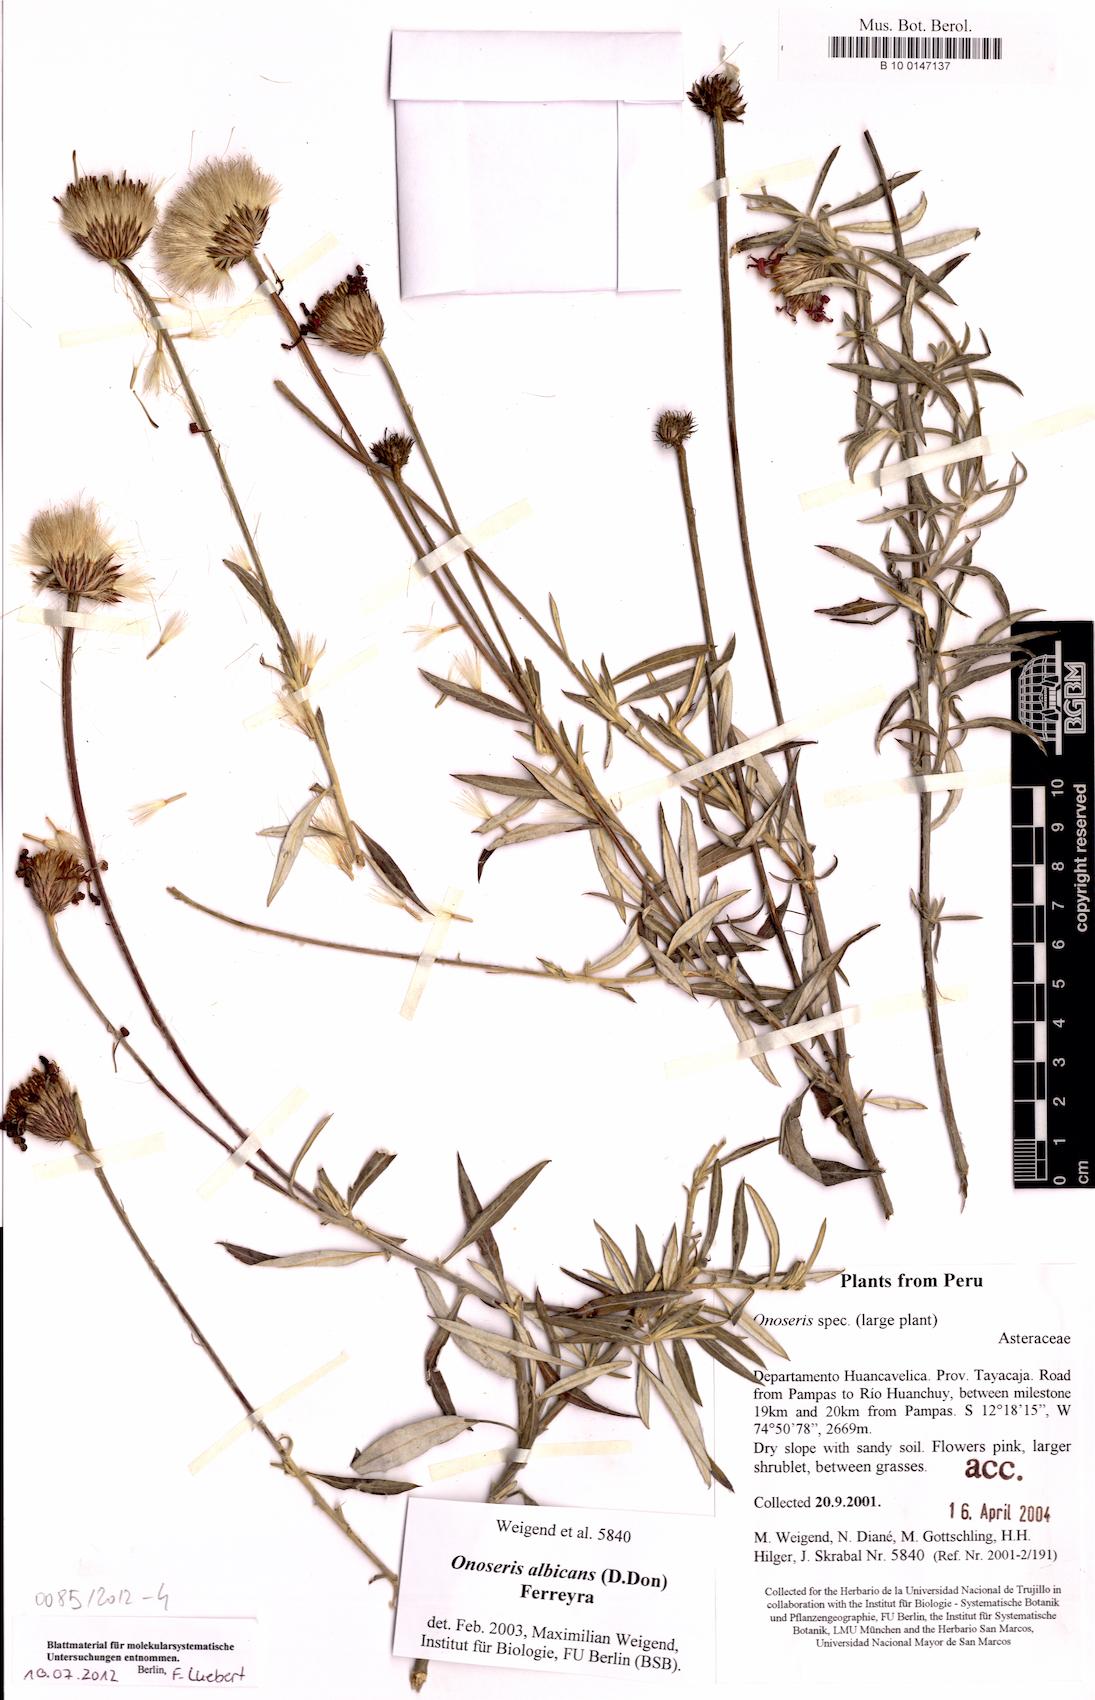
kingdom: Plantae
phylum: Tracheophyta
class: Magnoliopsida
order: Asterales
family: Asteraceae
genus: Onoseris
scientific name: Onoseris chrysactinioides
